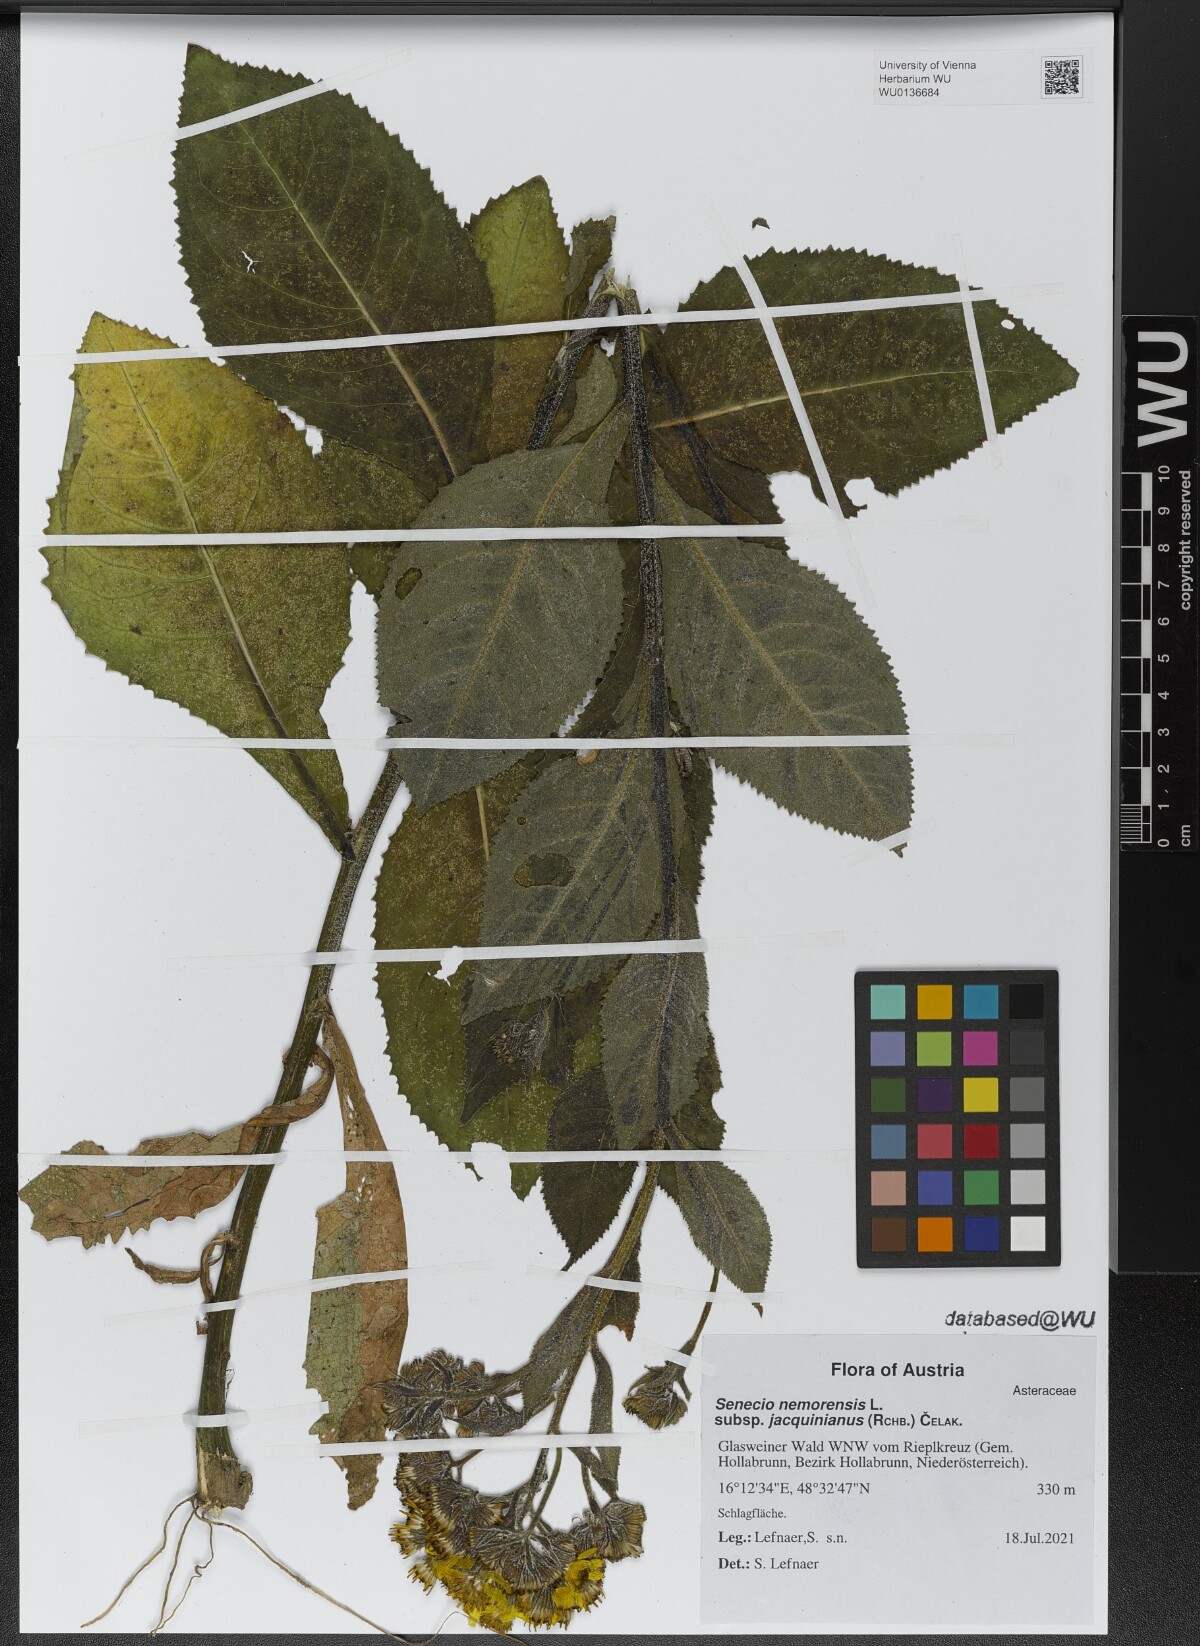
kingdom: Plantae
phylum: Tracheophyta
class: Magnoliopsida
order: Asterales
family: Asteraceae
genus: Senecio
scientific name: Senecio germanicus
